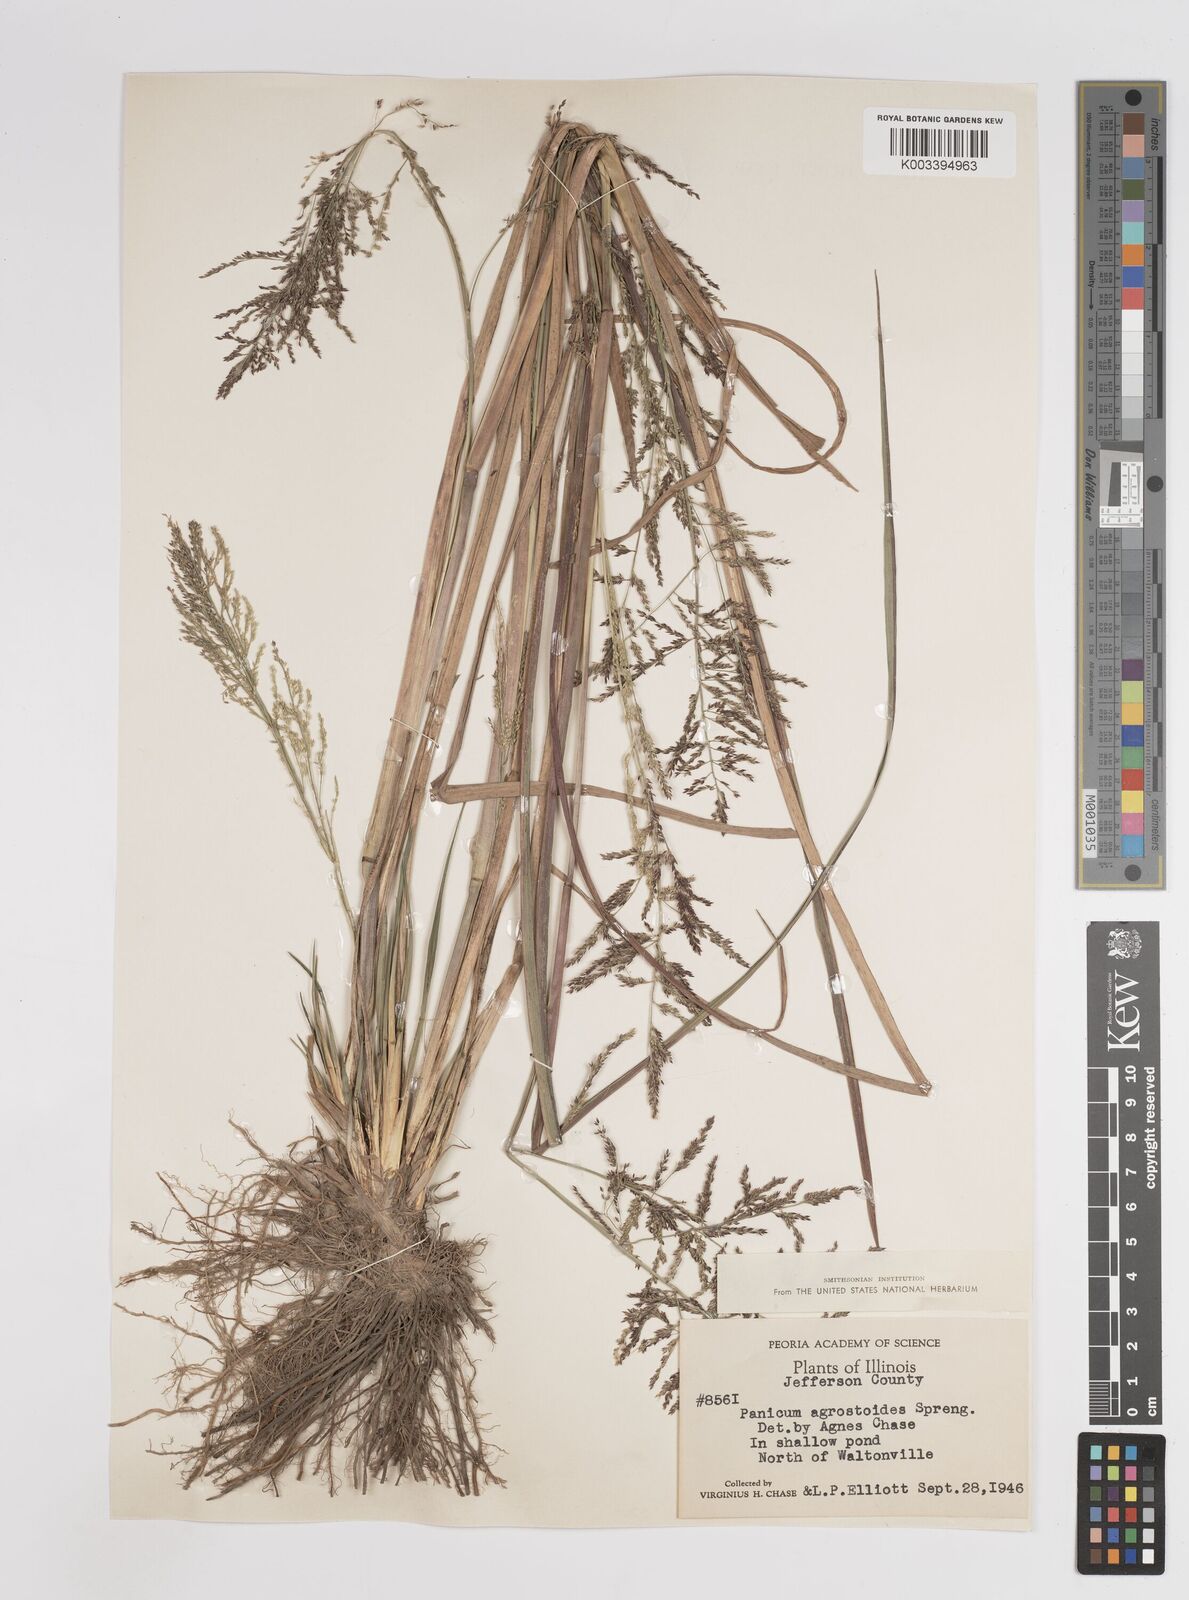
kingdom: Plantae
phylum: Tracheophyta
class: Liliopsida
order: Poales
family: Poaceae
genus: Steinchisma
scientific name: Steinchisma laxum
